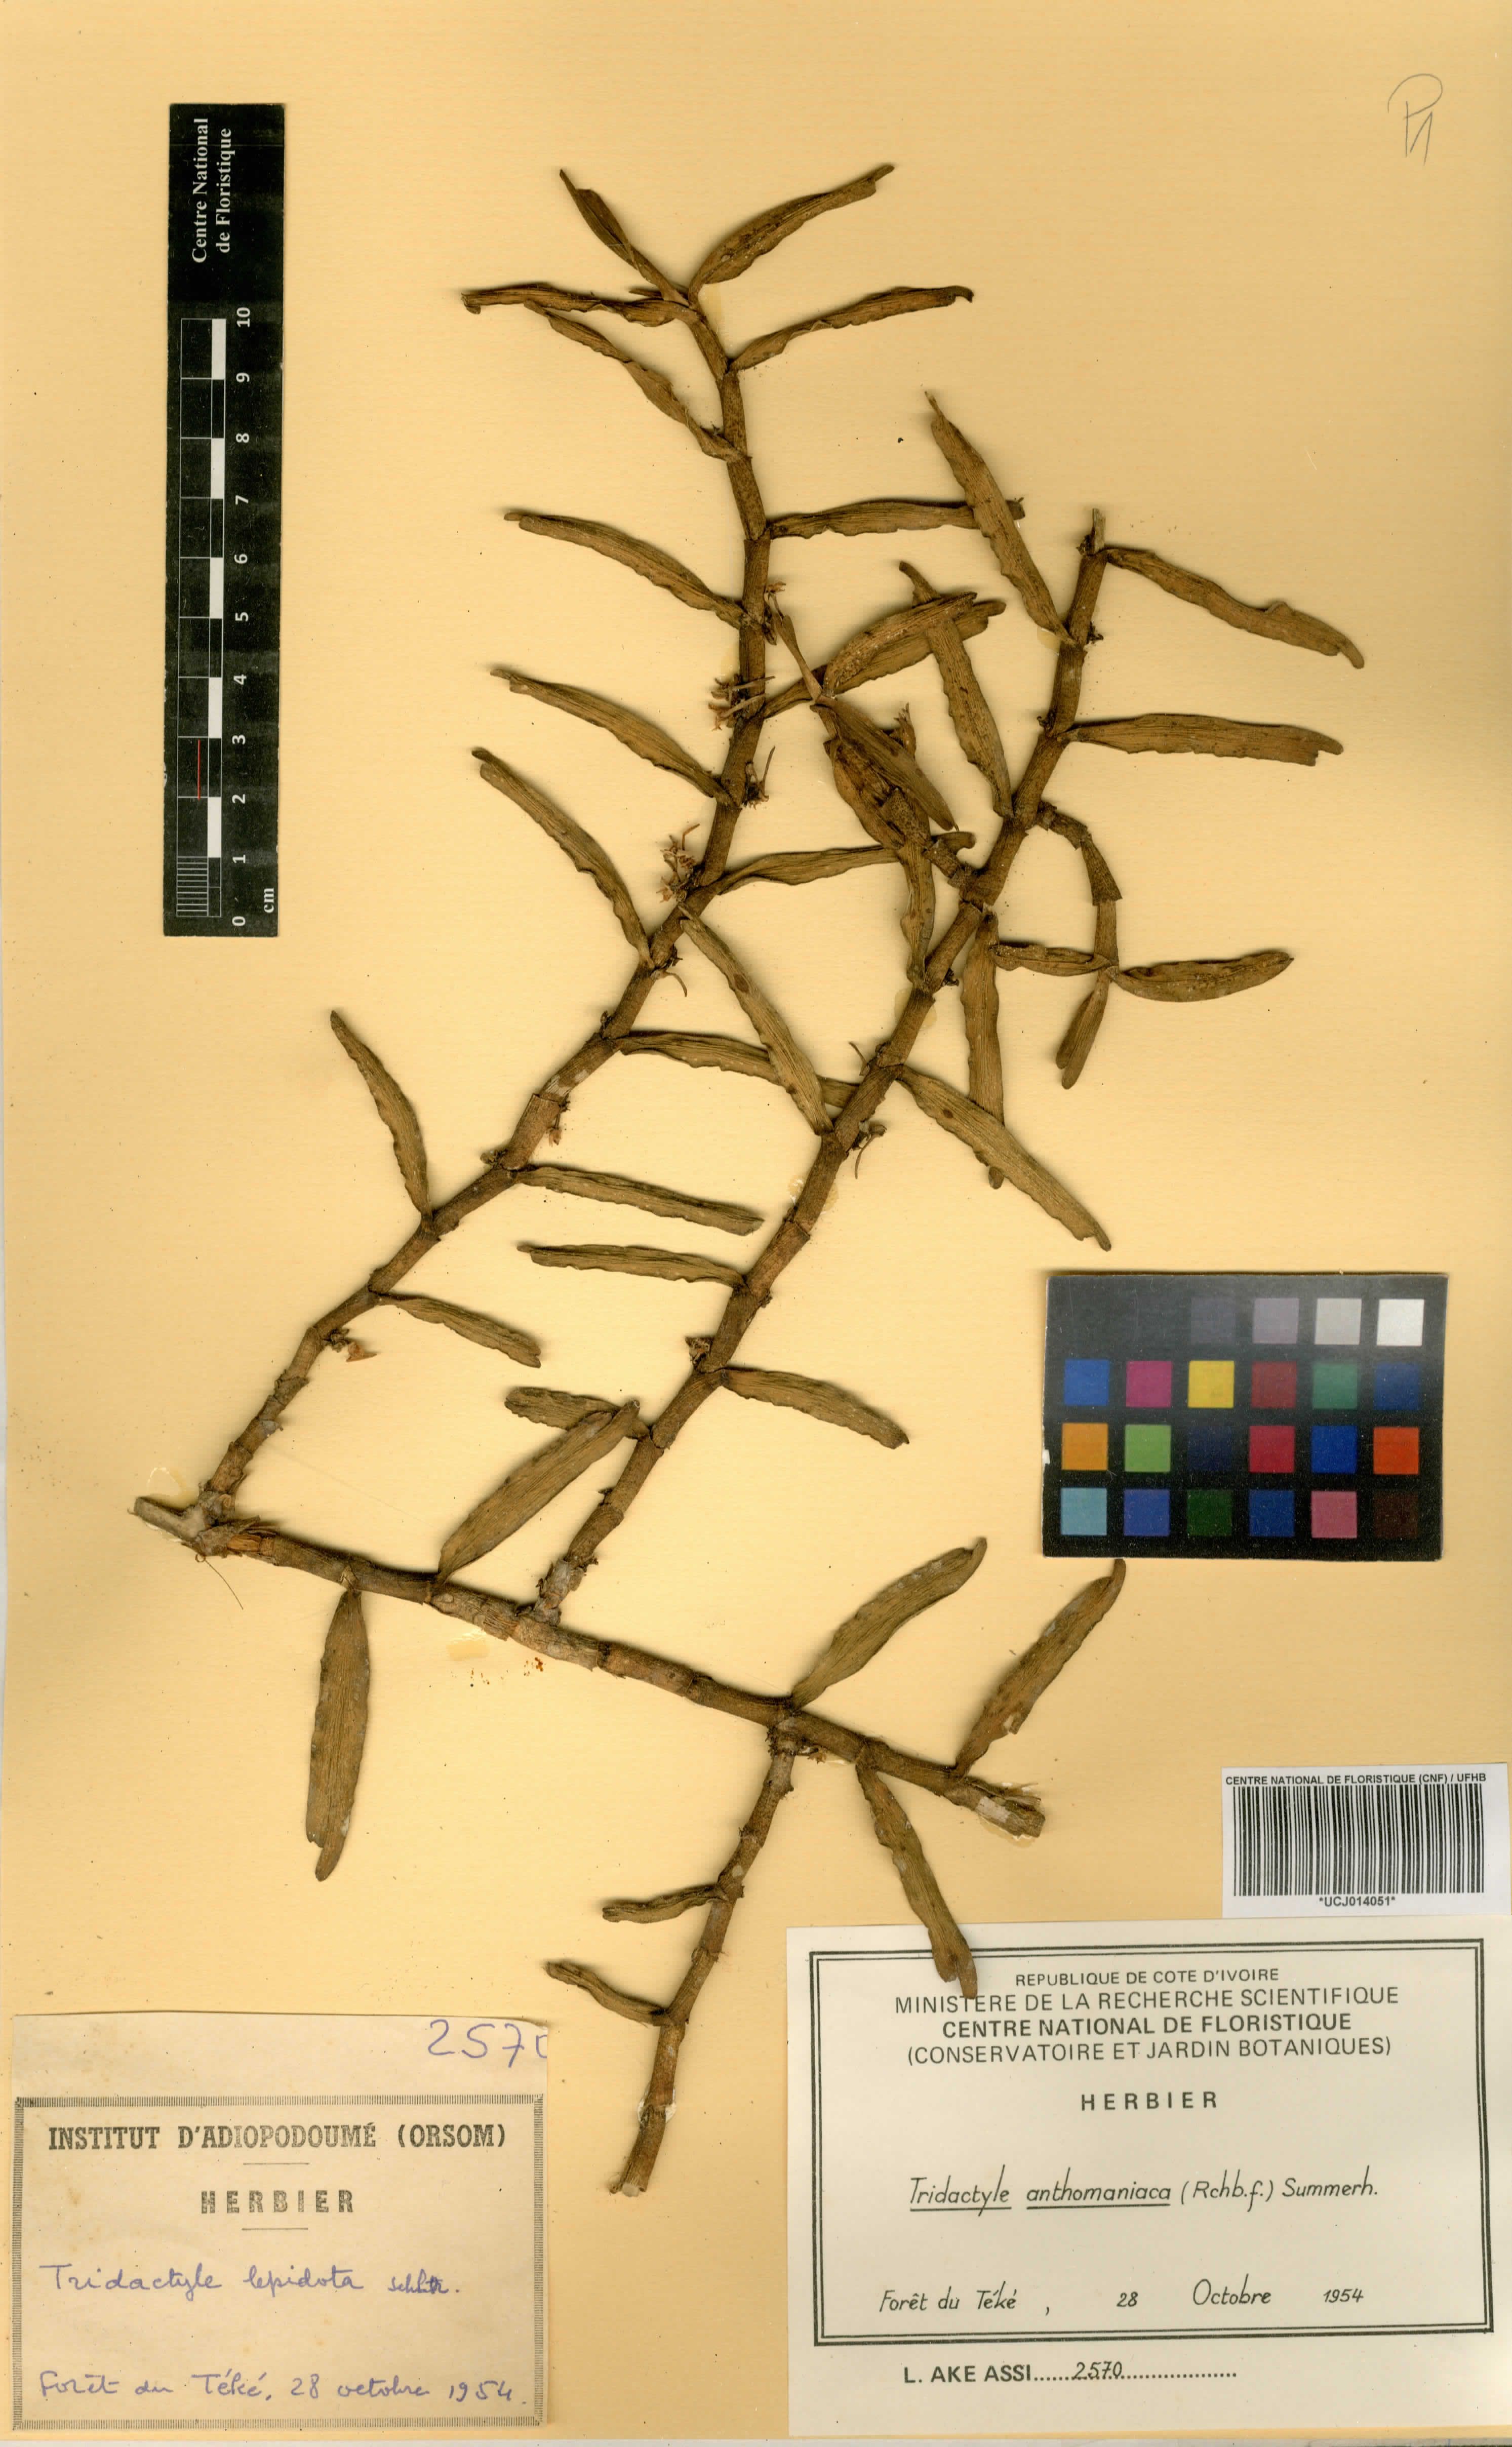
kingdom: Plantae
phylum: Tracheophyta
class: Liliopsida
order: Asparagales
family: Orchidaceae
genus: Tridactyle
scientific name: Tridactyle anthomaniaca
